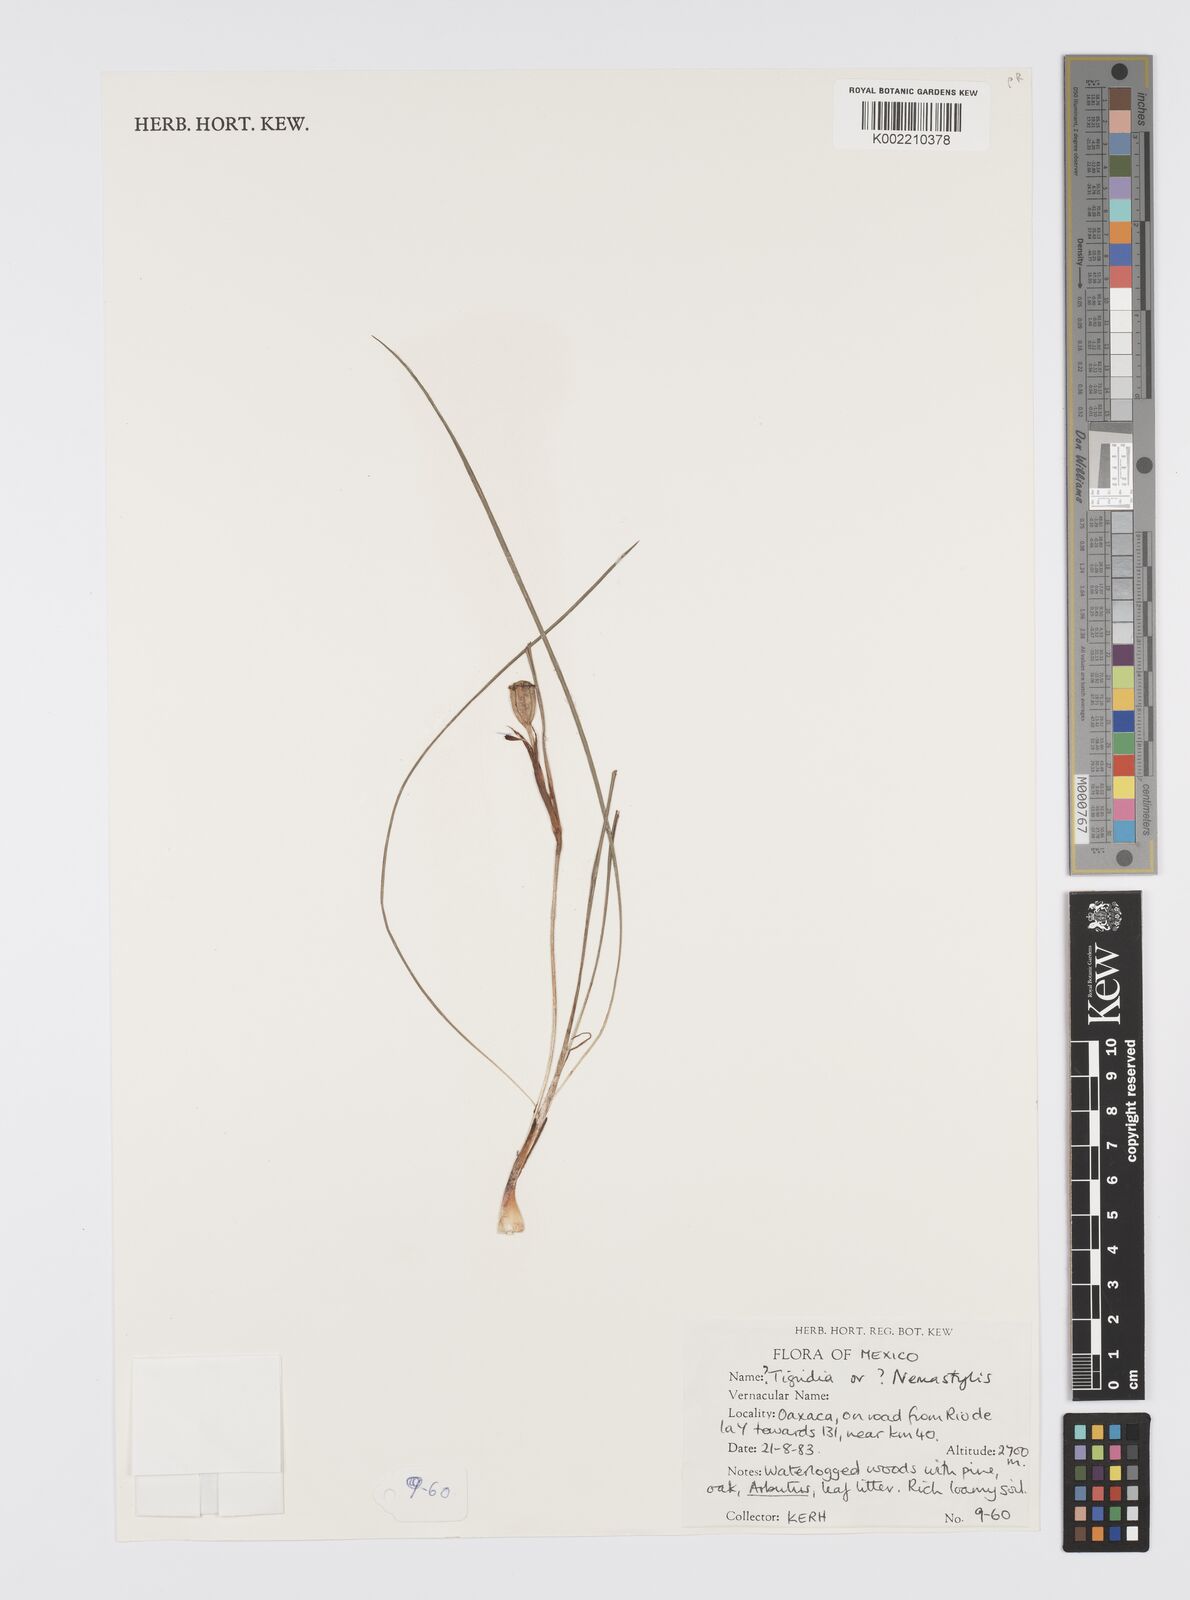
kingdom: Plantae
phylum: Tracheophyta
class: Liliopsida
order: Asparagales
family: Iridaceae
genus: Tigridia
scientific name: Tigridia
